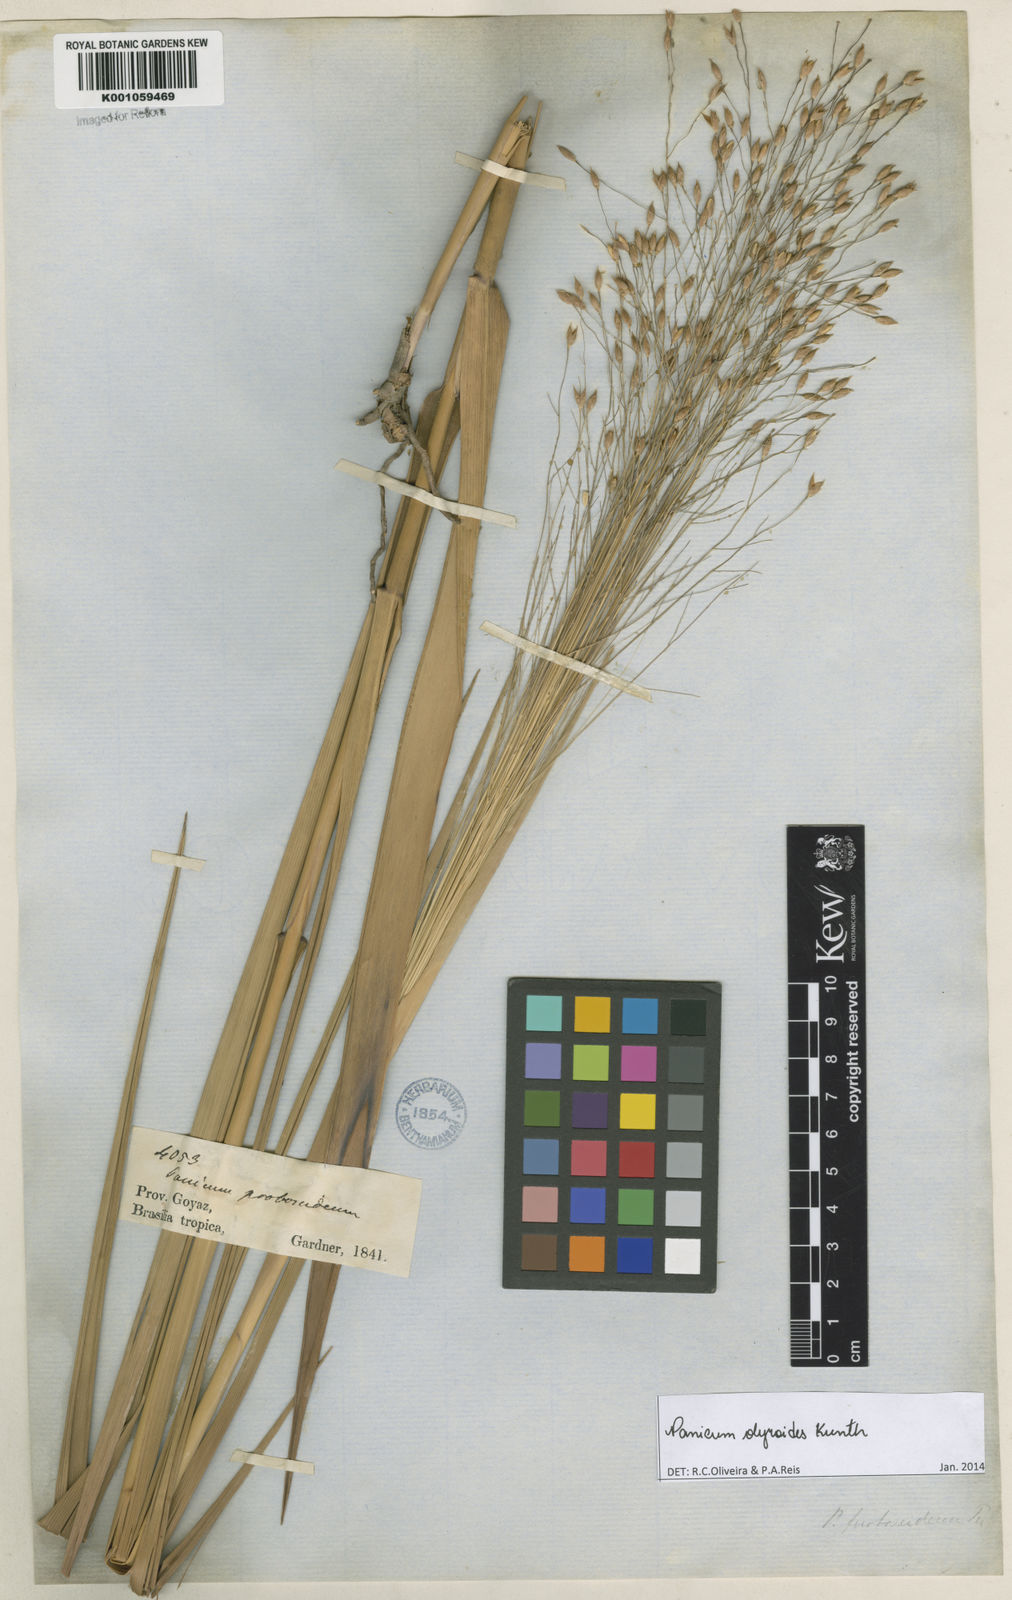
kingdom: Plantae
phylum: Tracheophyta
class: Liliopsida
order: Poales
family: Poaceae
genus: Panicum
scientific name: Panicum olyroides
